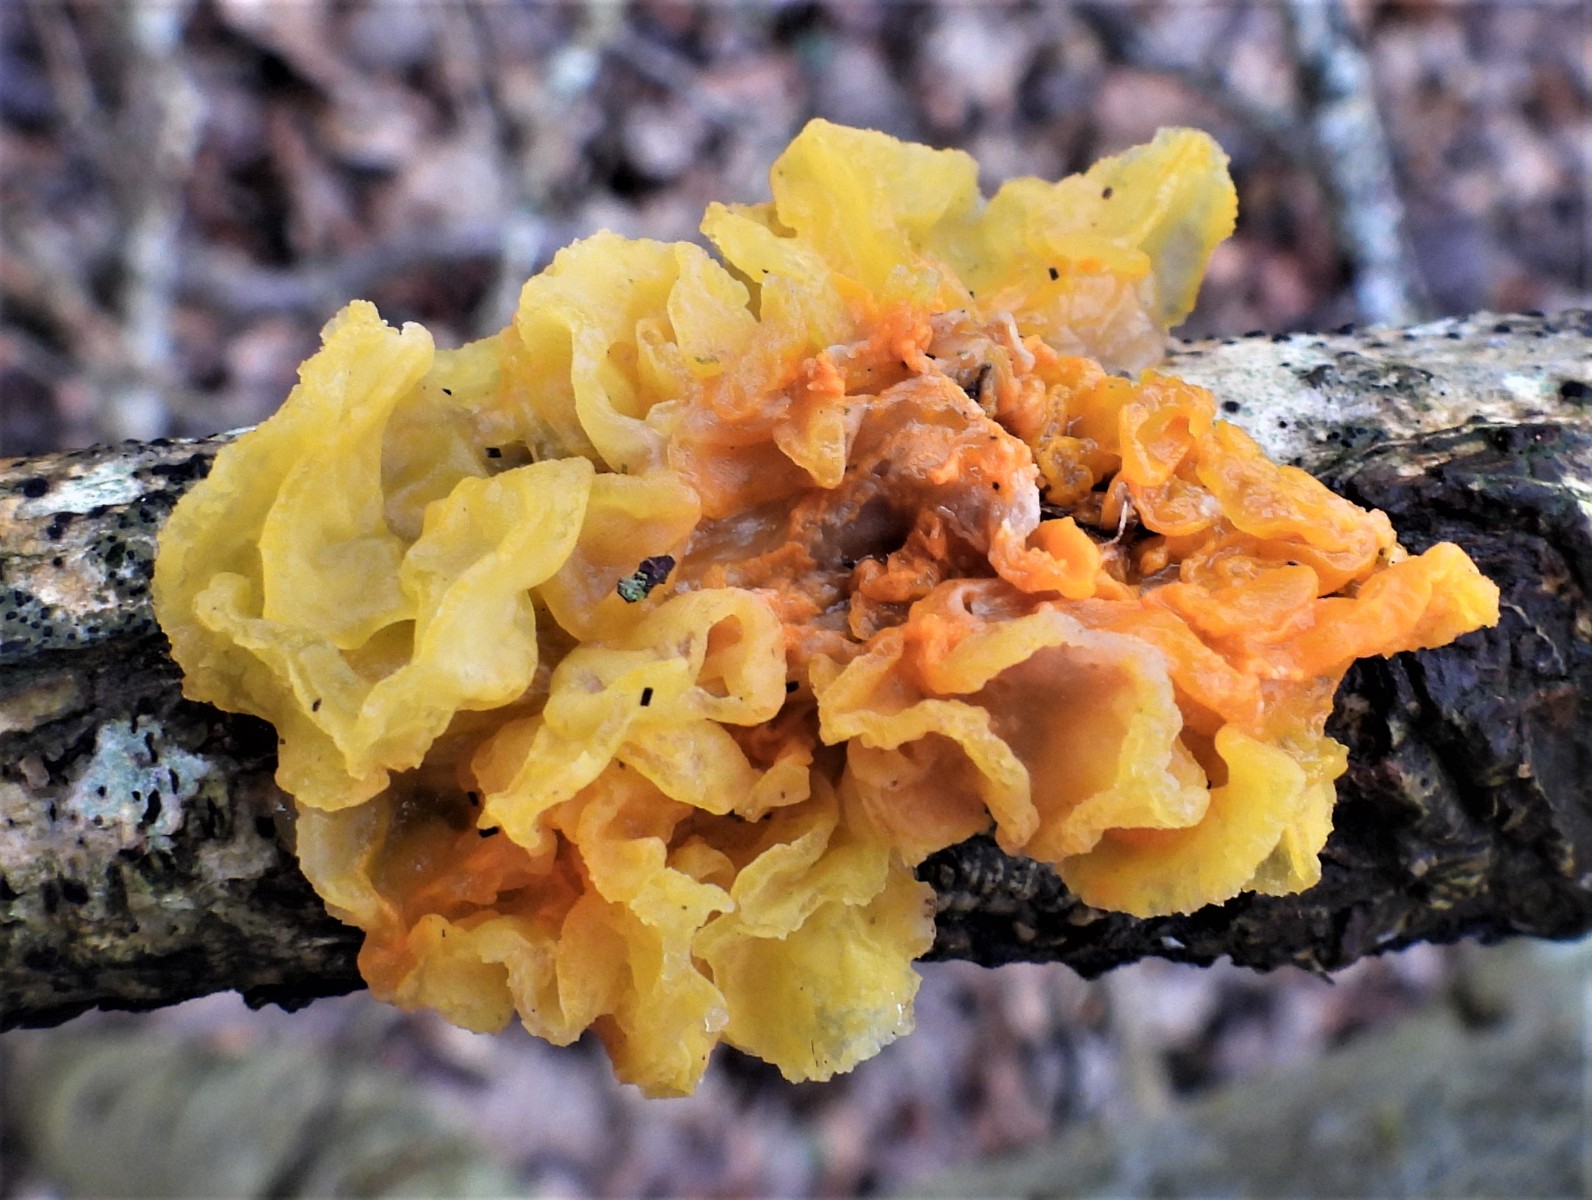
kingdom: Fungi
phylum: Basidiomycota
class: Tremellomycetes
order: Tremellales
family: Tremellaceae
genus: Tremella
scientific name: Tremella mesenterica
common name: gul bævresvamp
